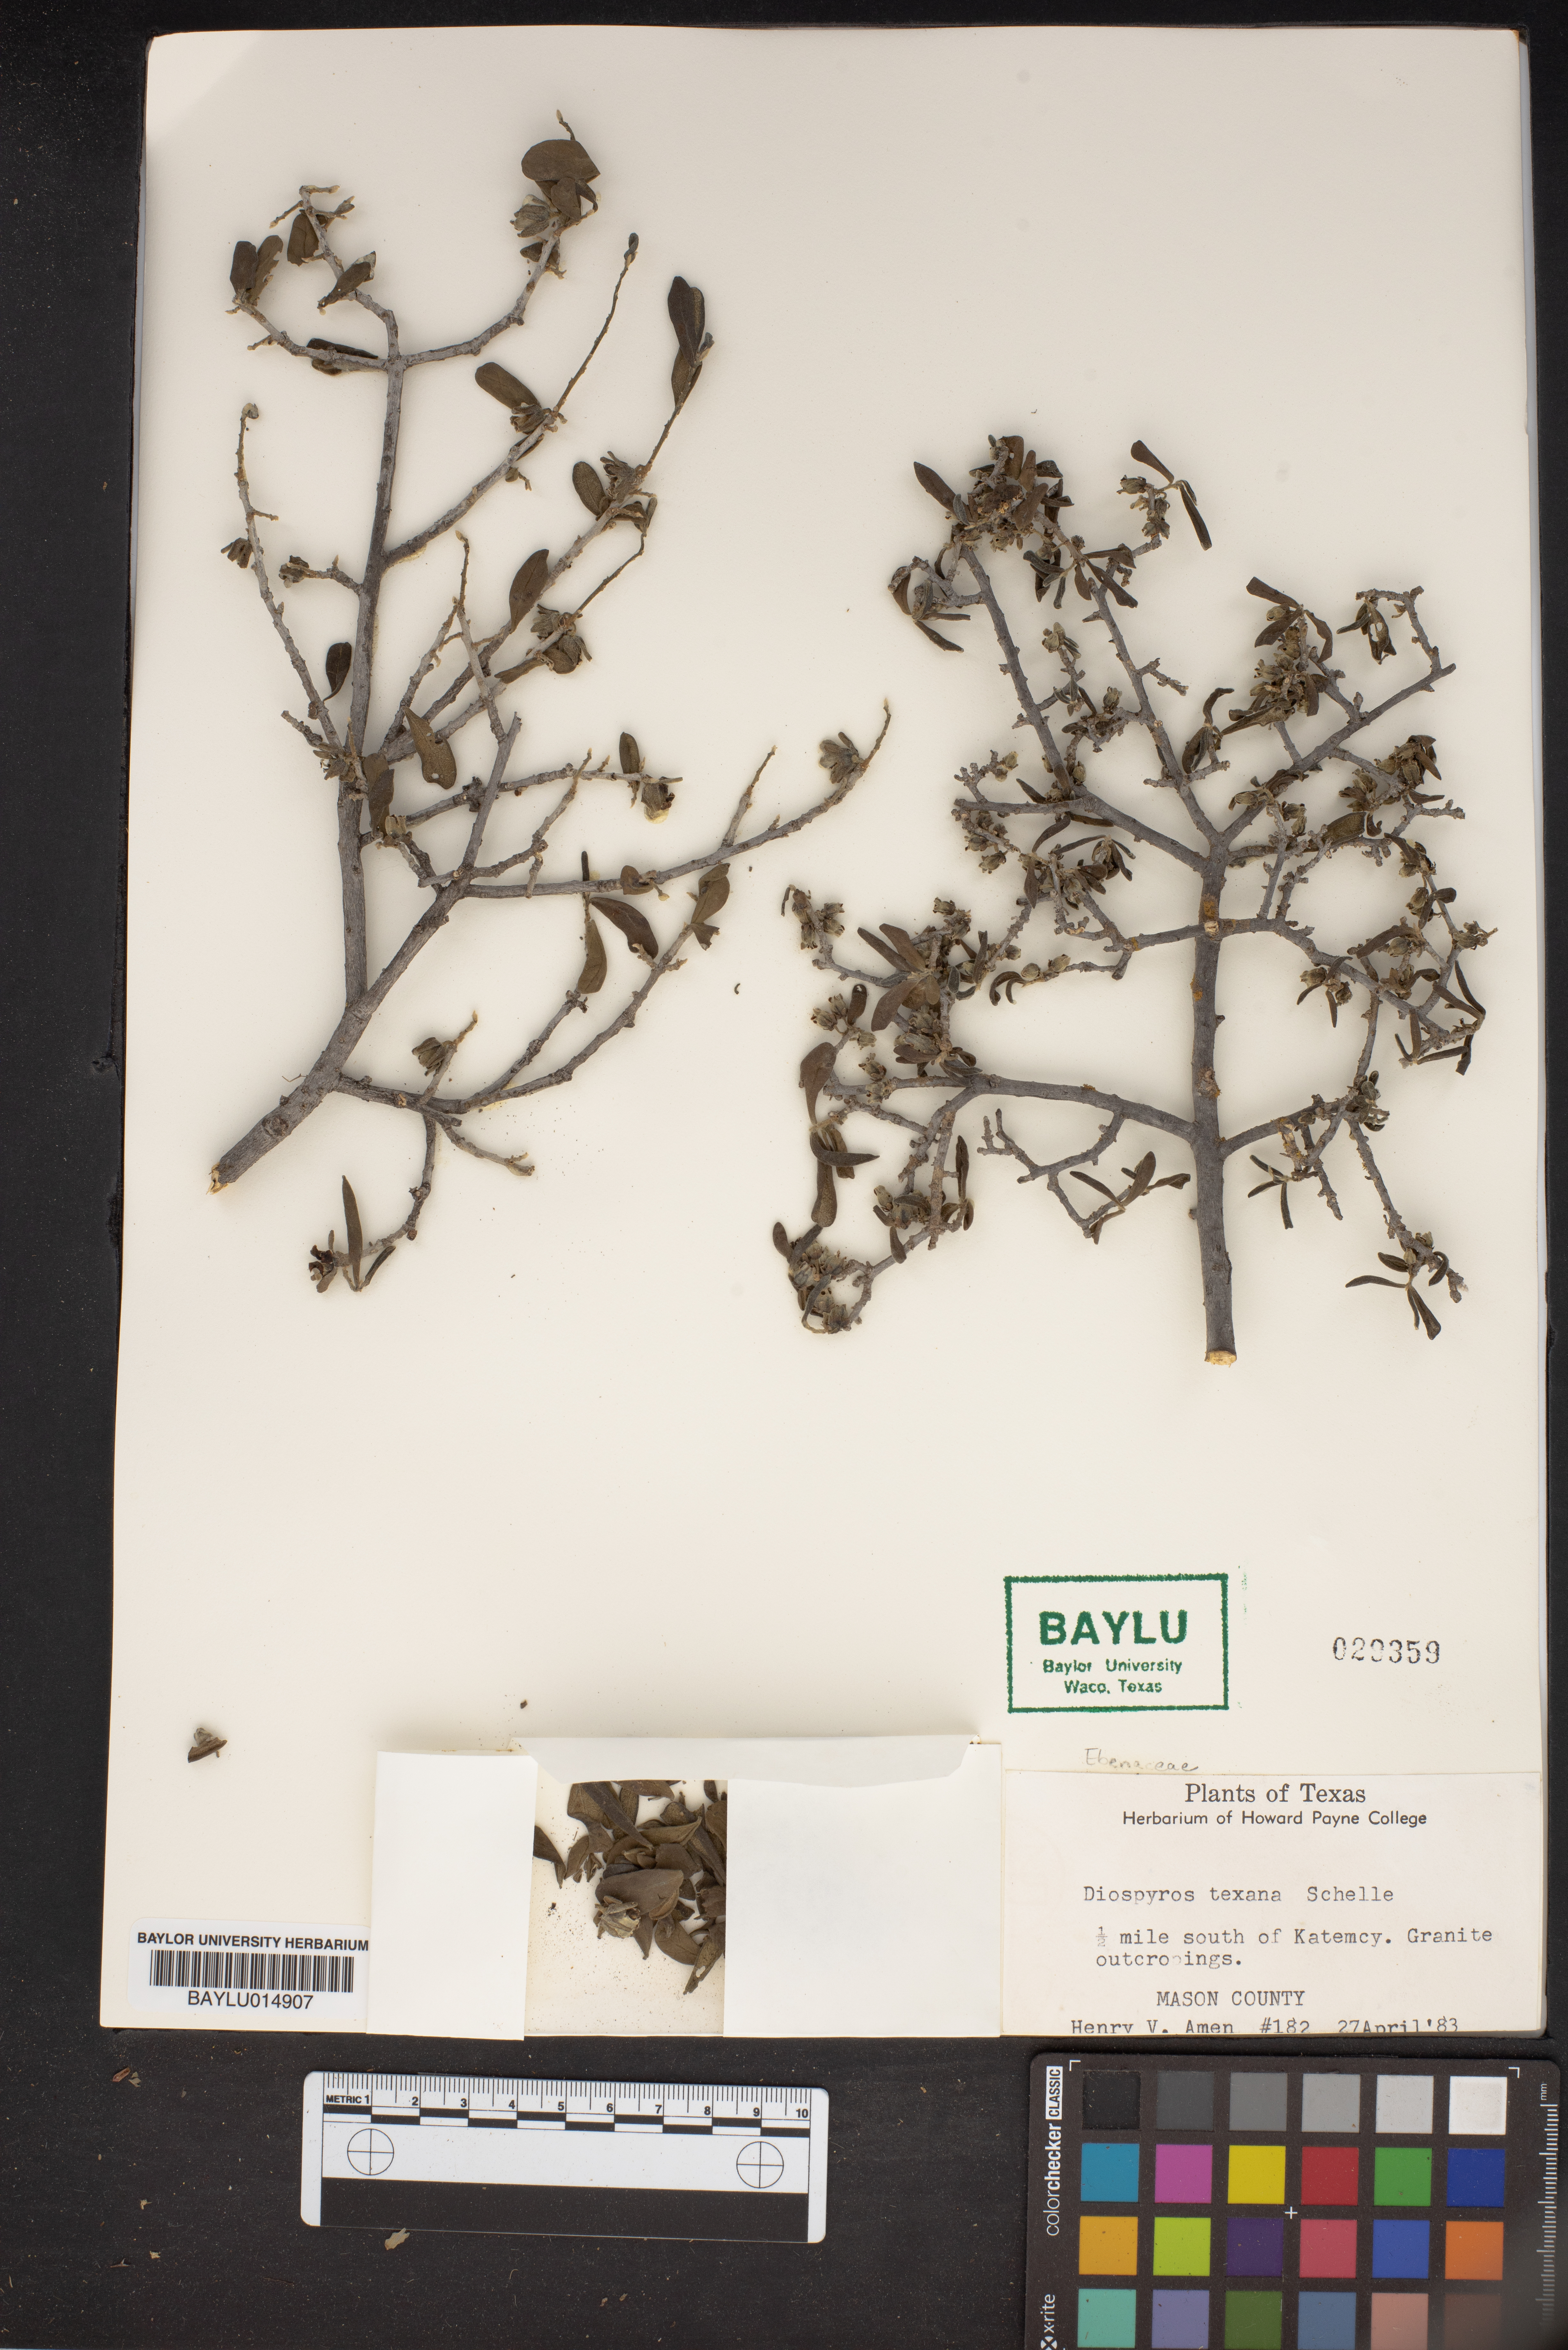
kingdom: Plantae
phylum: Tracheophyta
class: Magnoliopsida
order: Ericales
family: Ebenaceae
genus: Diospyros
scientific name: Diospyros texana
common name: Texas persimmon
